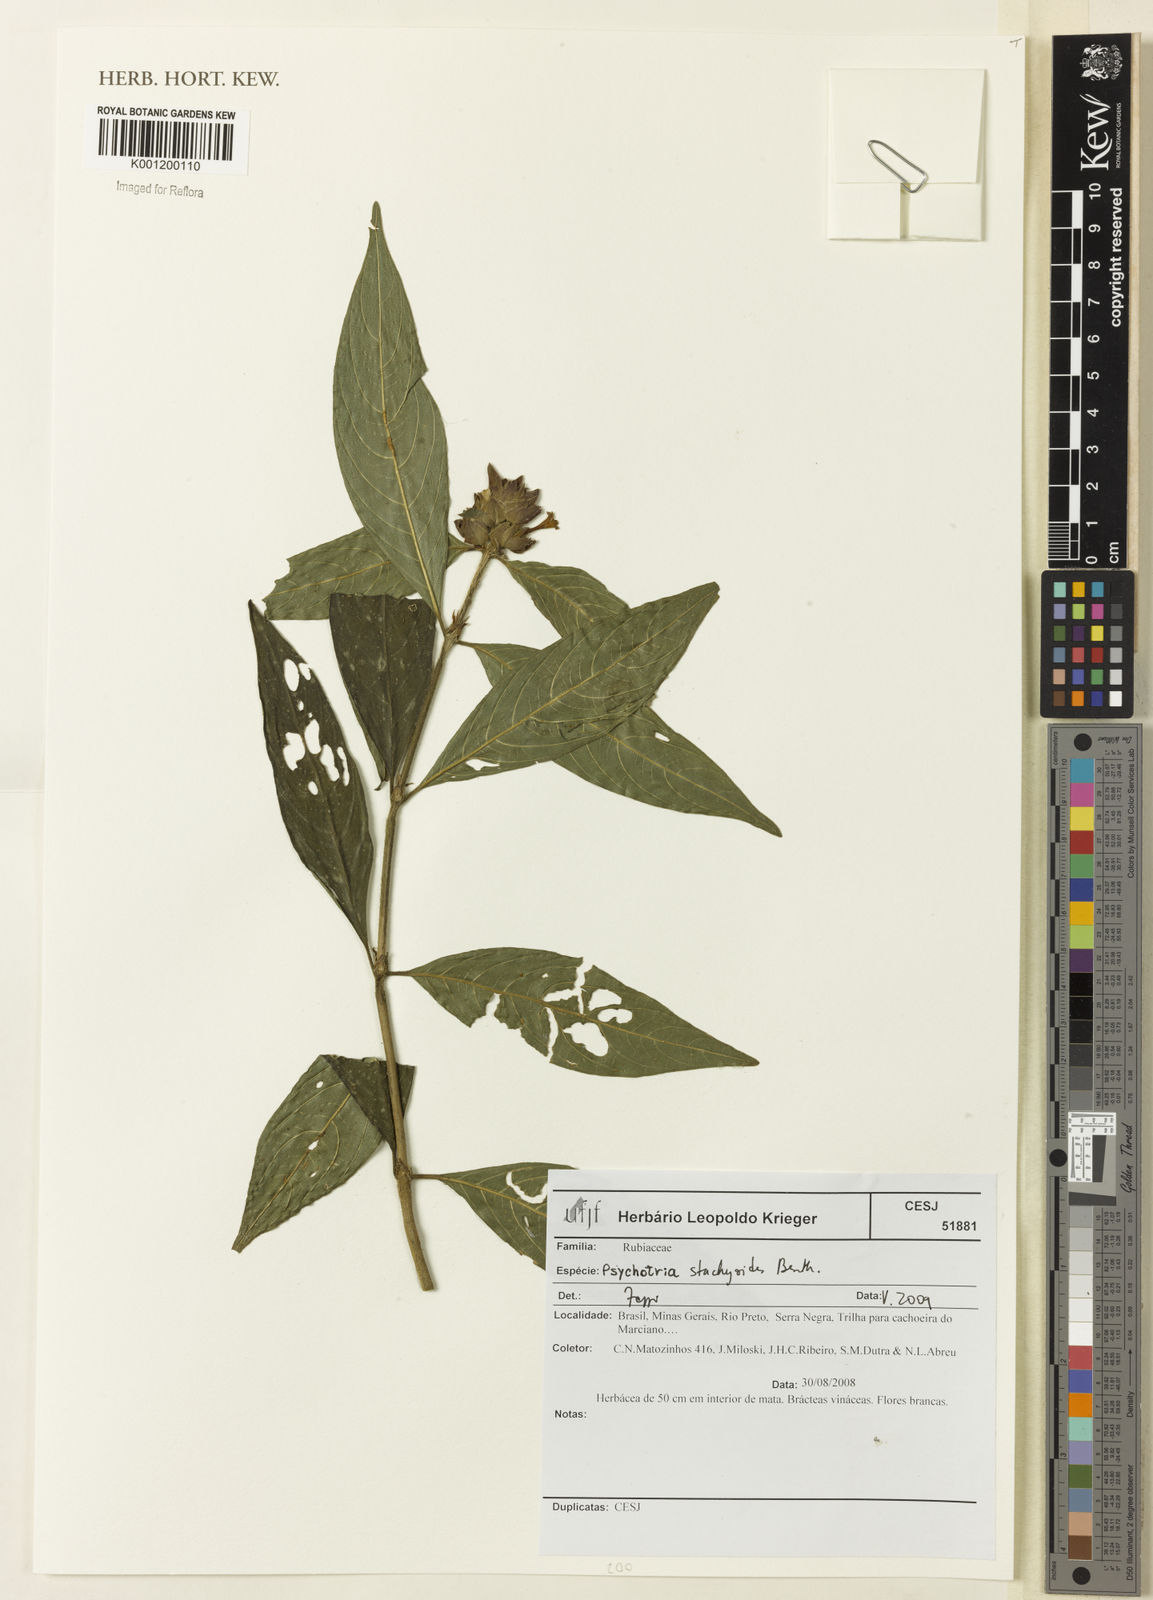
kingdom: Plantae
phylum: Tracheophyta
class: Magnoliopsida
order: Gentianales
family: Rubiaceae
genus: Psychotria
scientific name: Psychotria stachyoides
